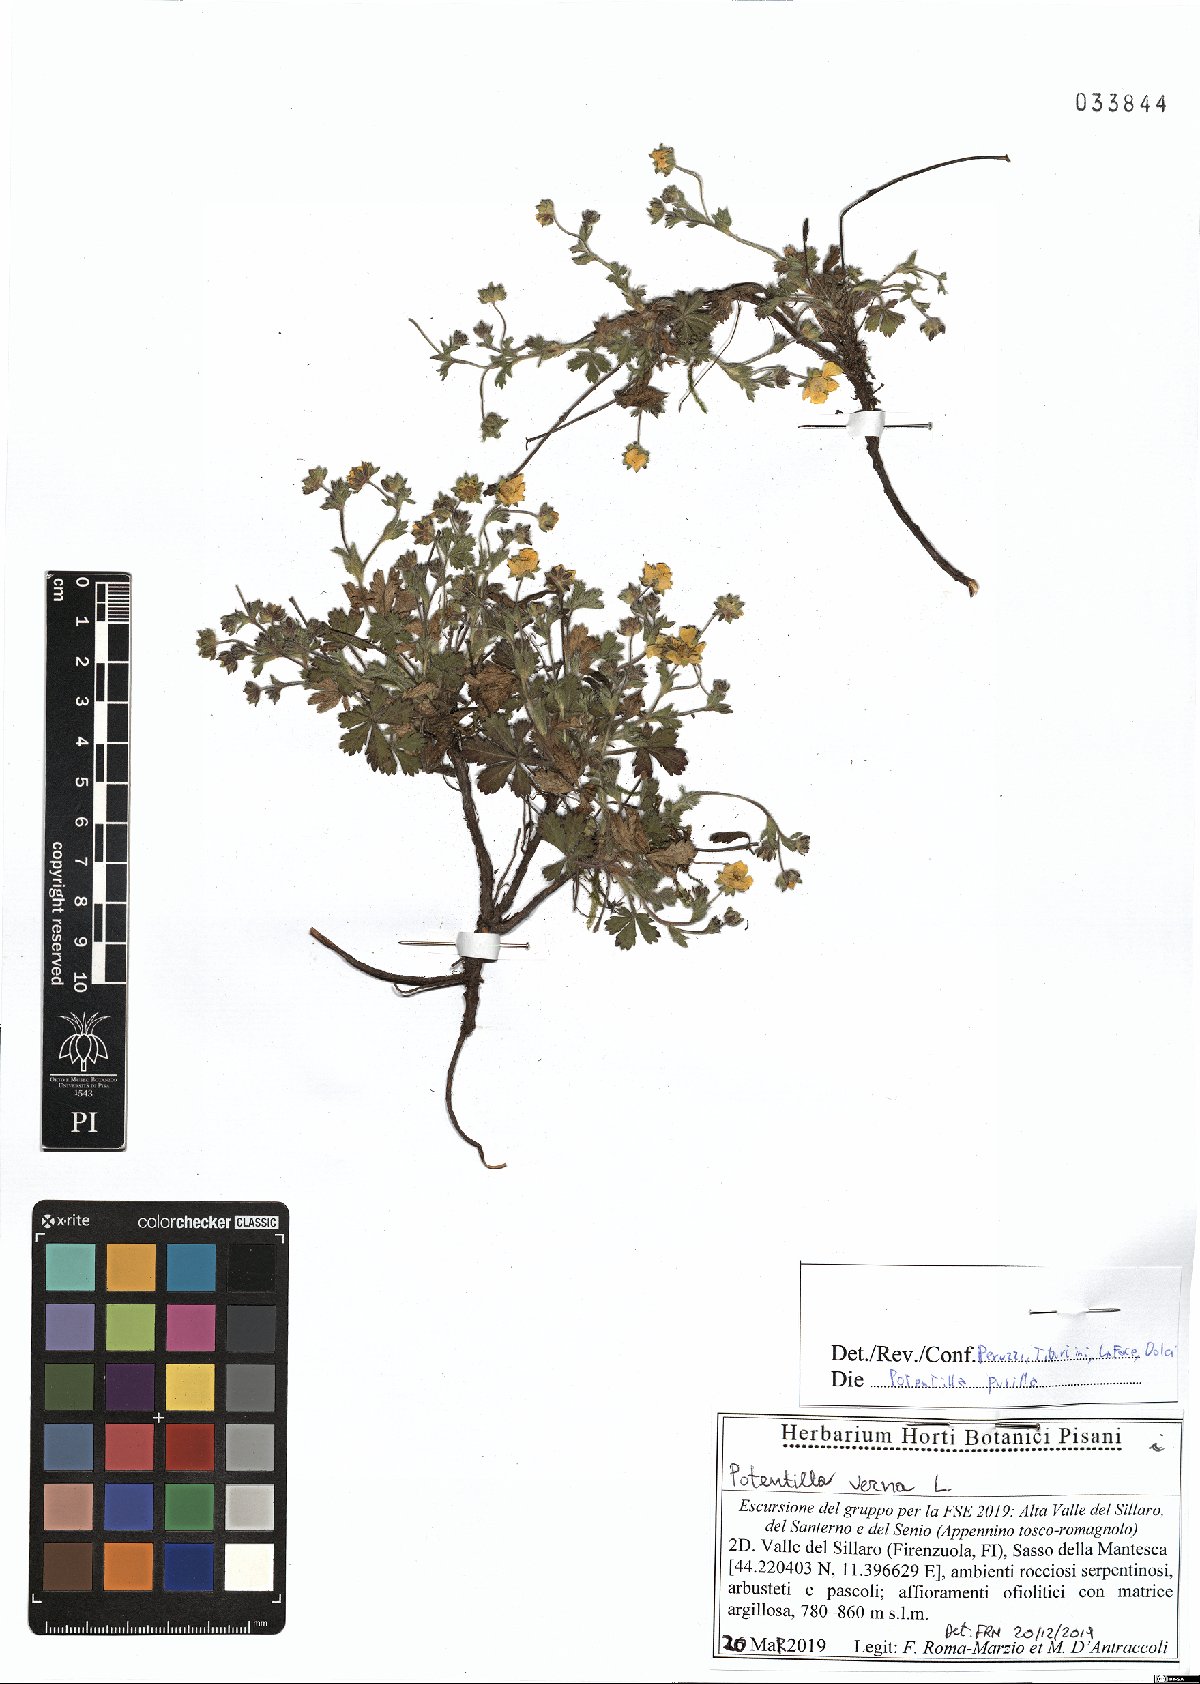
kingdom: Plantae
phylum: Tracheophyta
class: Magnoliopsida
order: Rosales
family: Rosaceae
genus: Potentilla
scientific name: Potentilla pusilla
